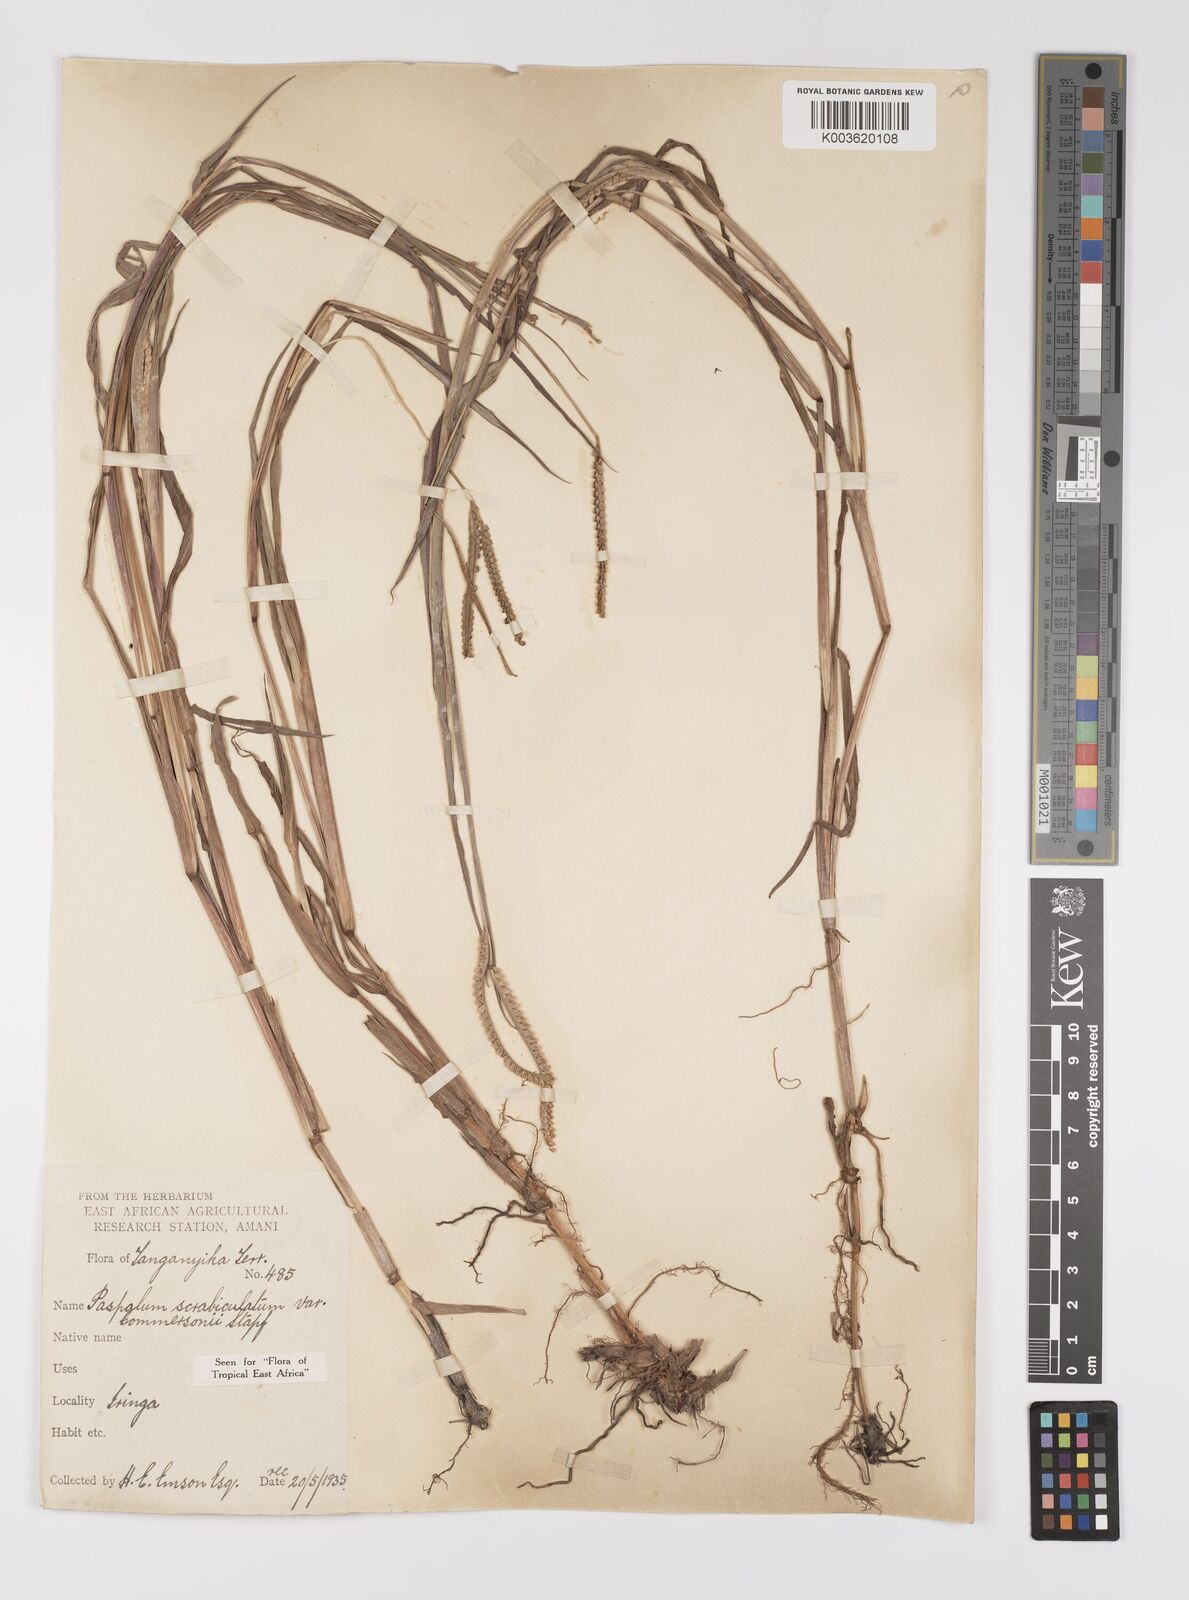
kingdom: Plantae
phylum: Tracheophyta
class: Liliopsida
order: Poales
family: Poaceae
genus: Paspalum
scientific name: Paspalum scrobiculatum
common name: Kodo millet
